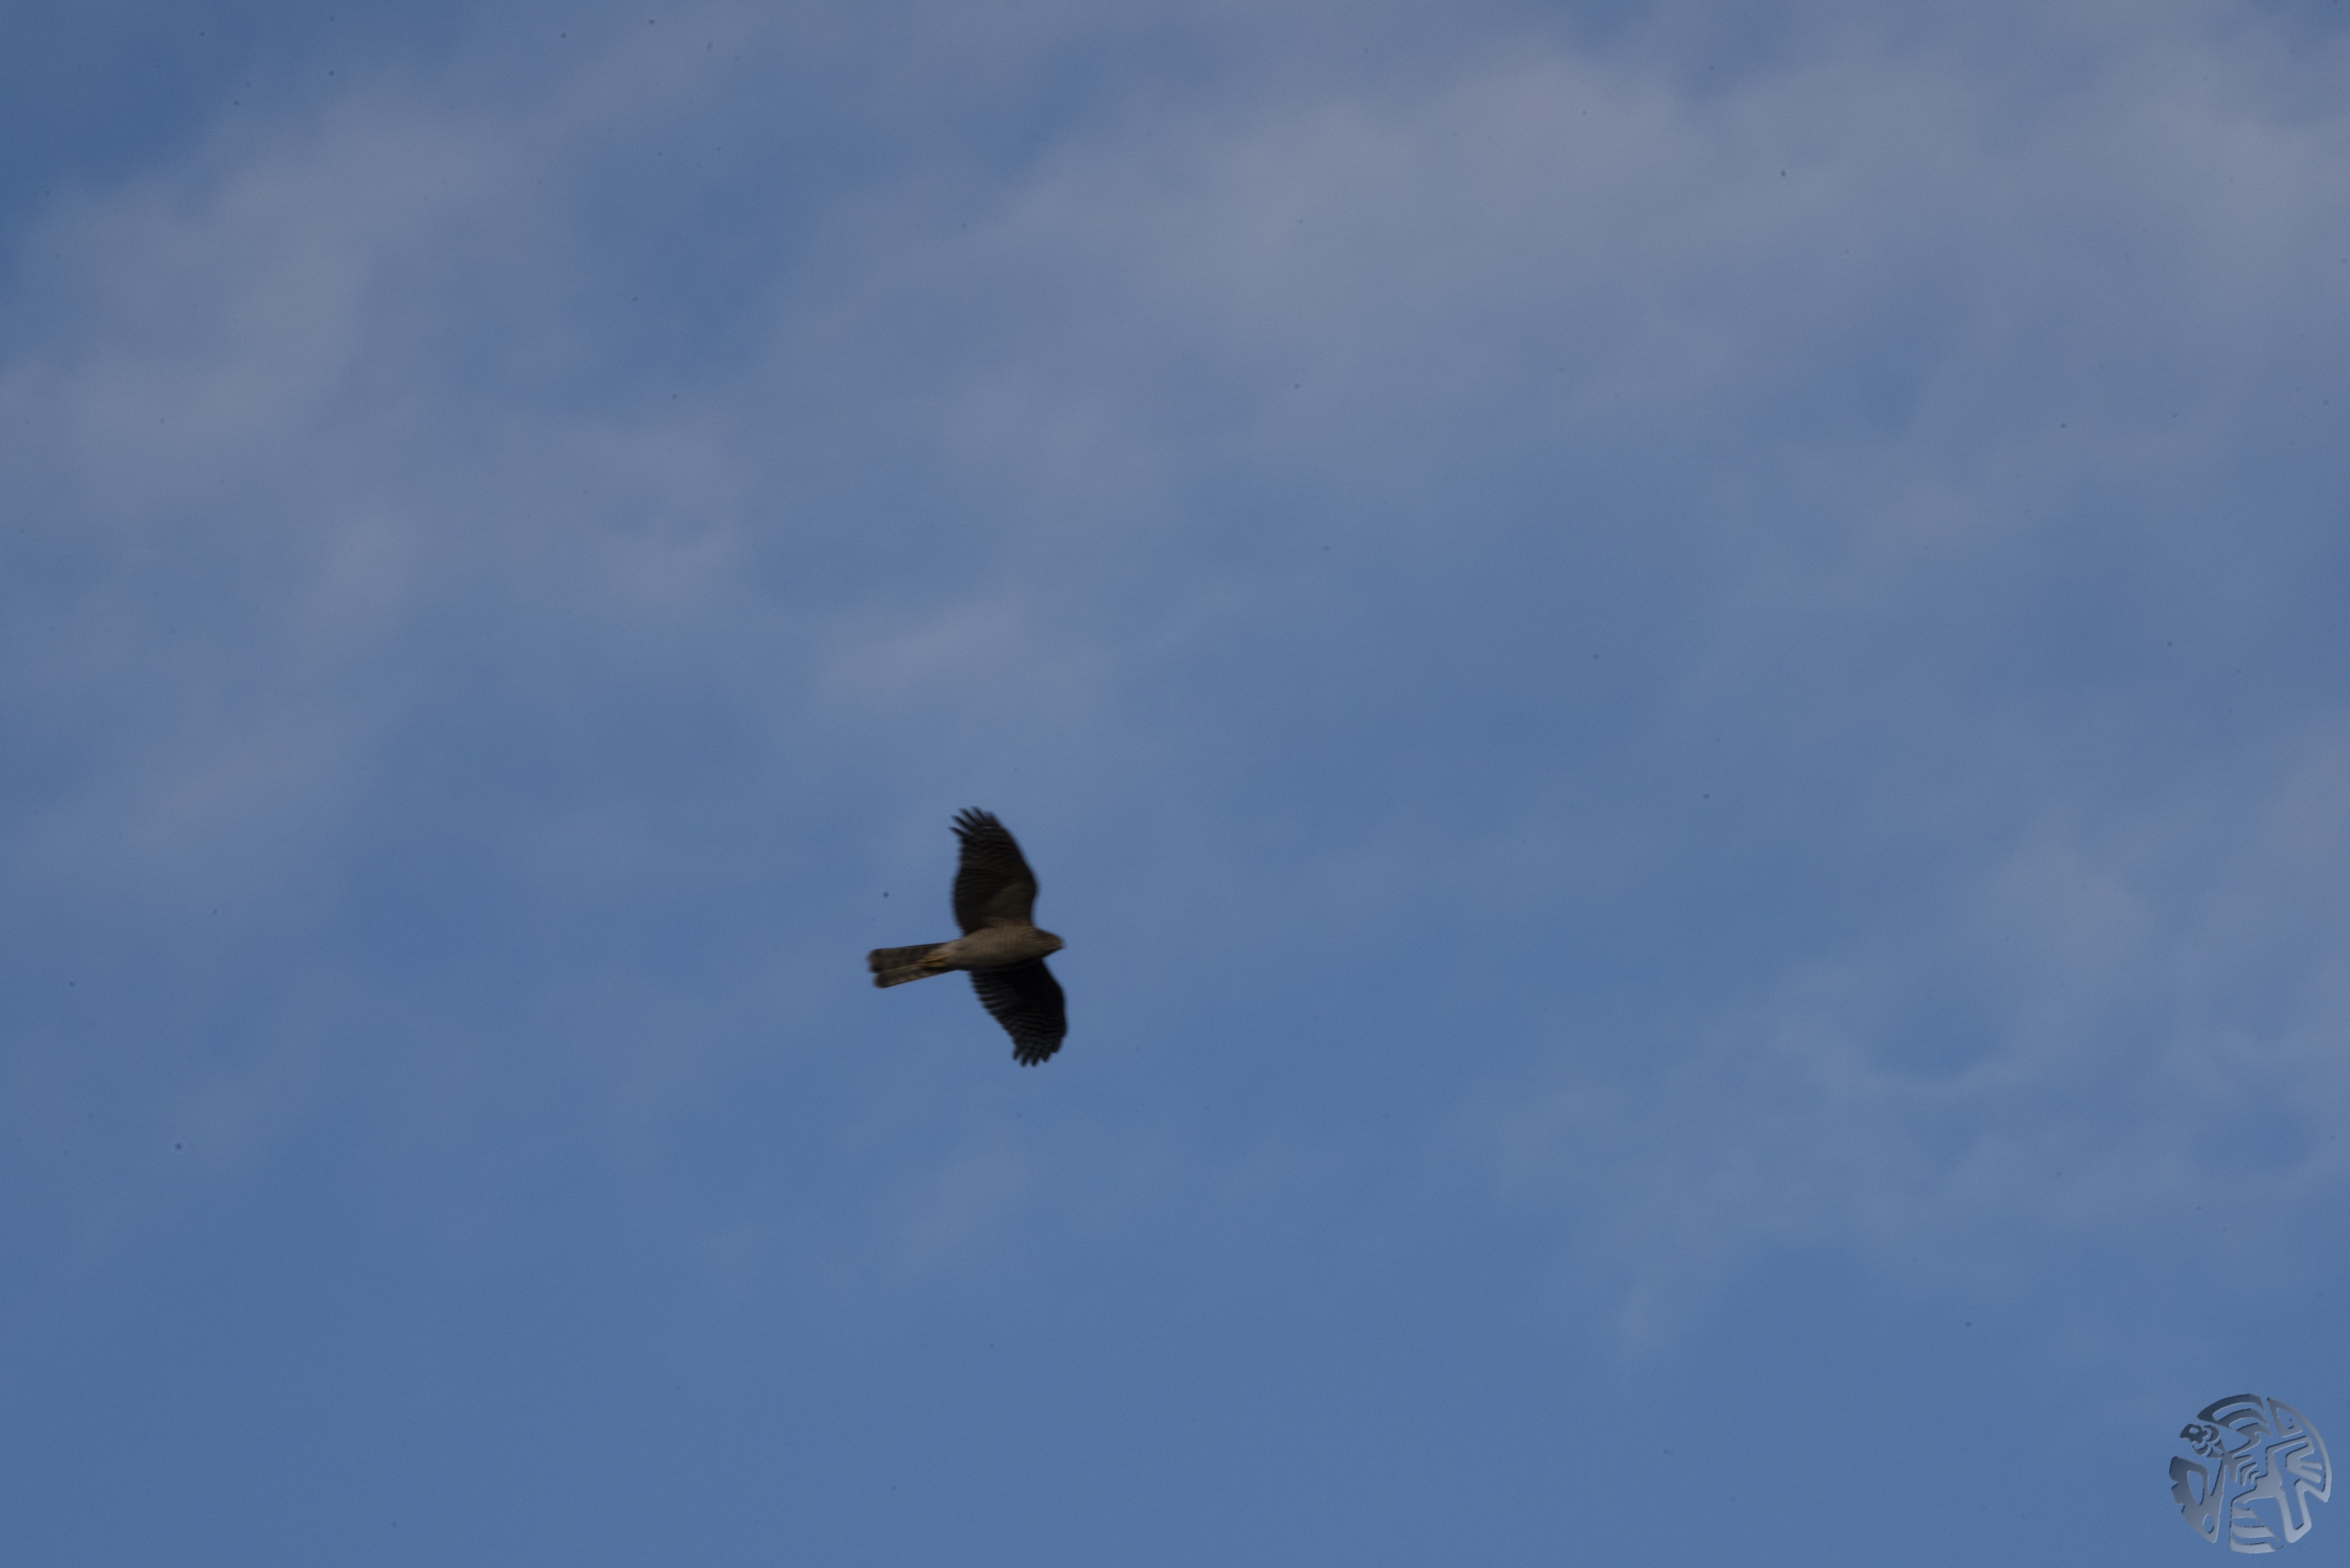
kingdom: Animalia
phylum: Chordata
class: Aves
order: Accipitriformes
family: Accipitridae
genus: Accipiter
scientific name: Accipiter nisus
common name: Spurvehøg
